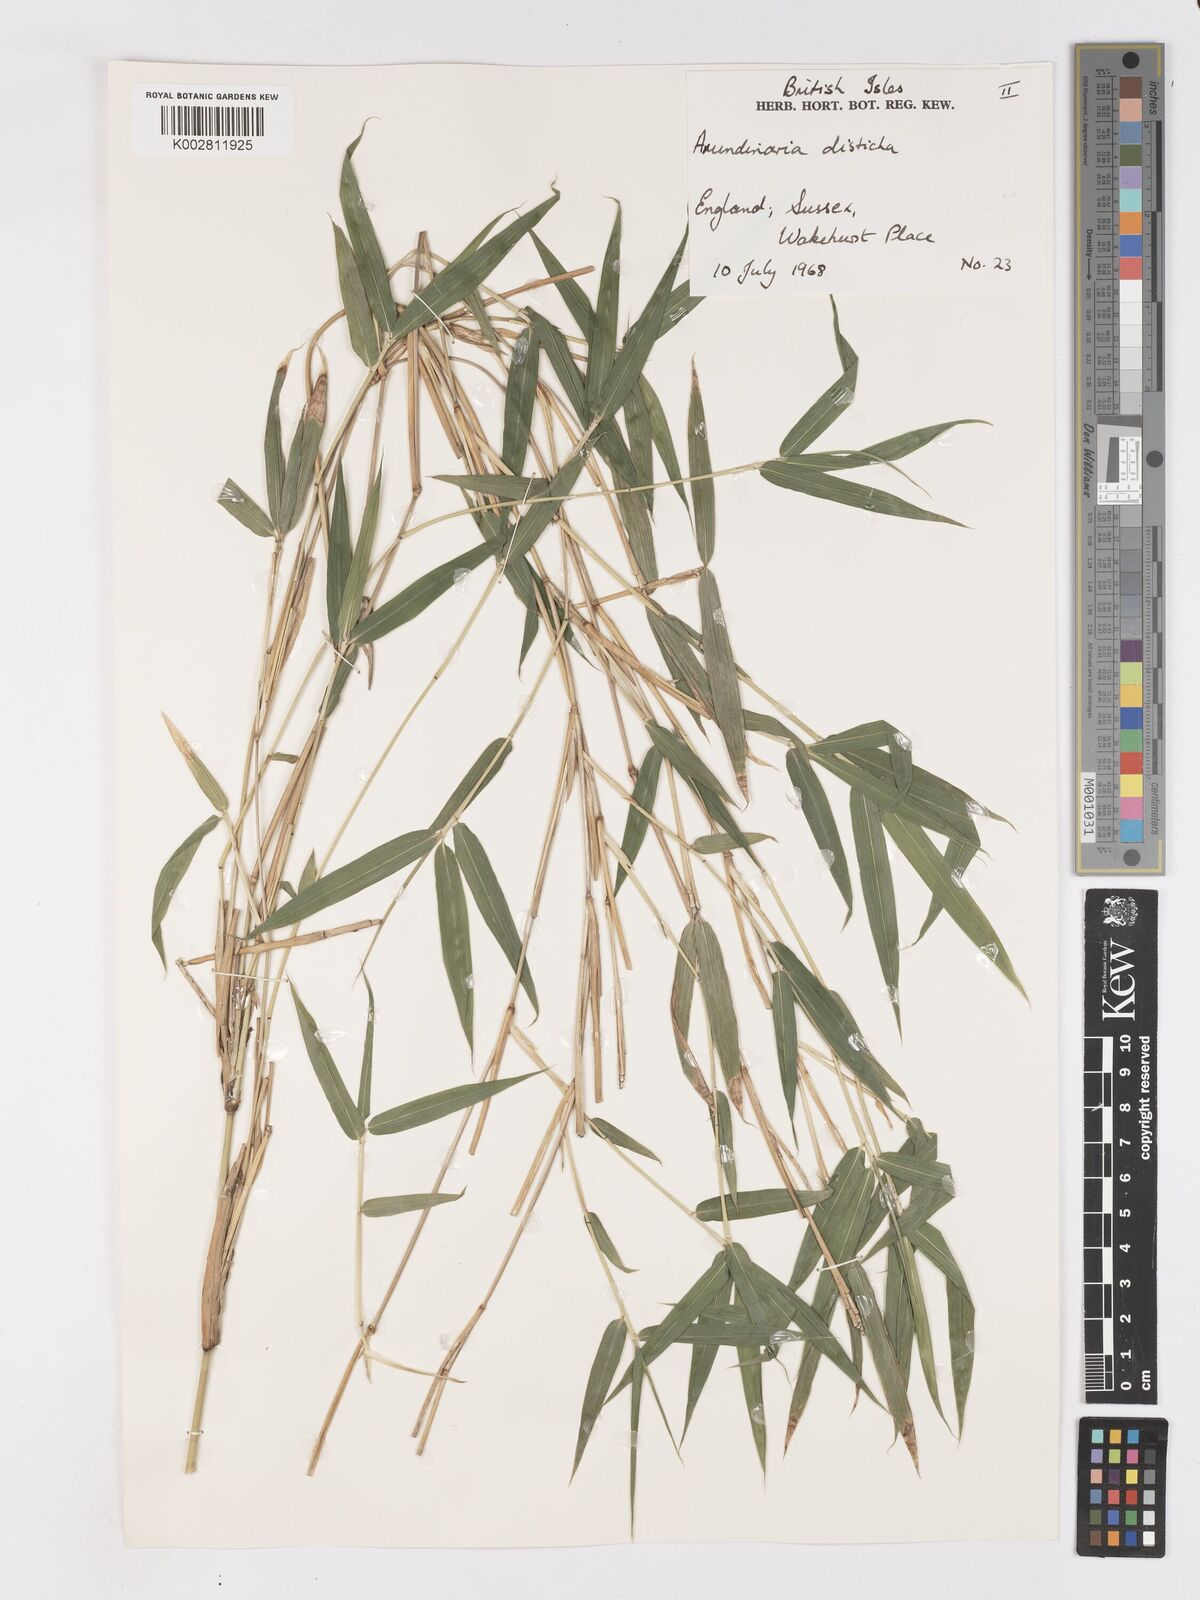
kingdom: Plantae
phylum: Tracheophyta
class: Liliopsida
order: Poales
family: Poaceae
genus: Pleioblastus
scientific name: Pleioblastus distichus
